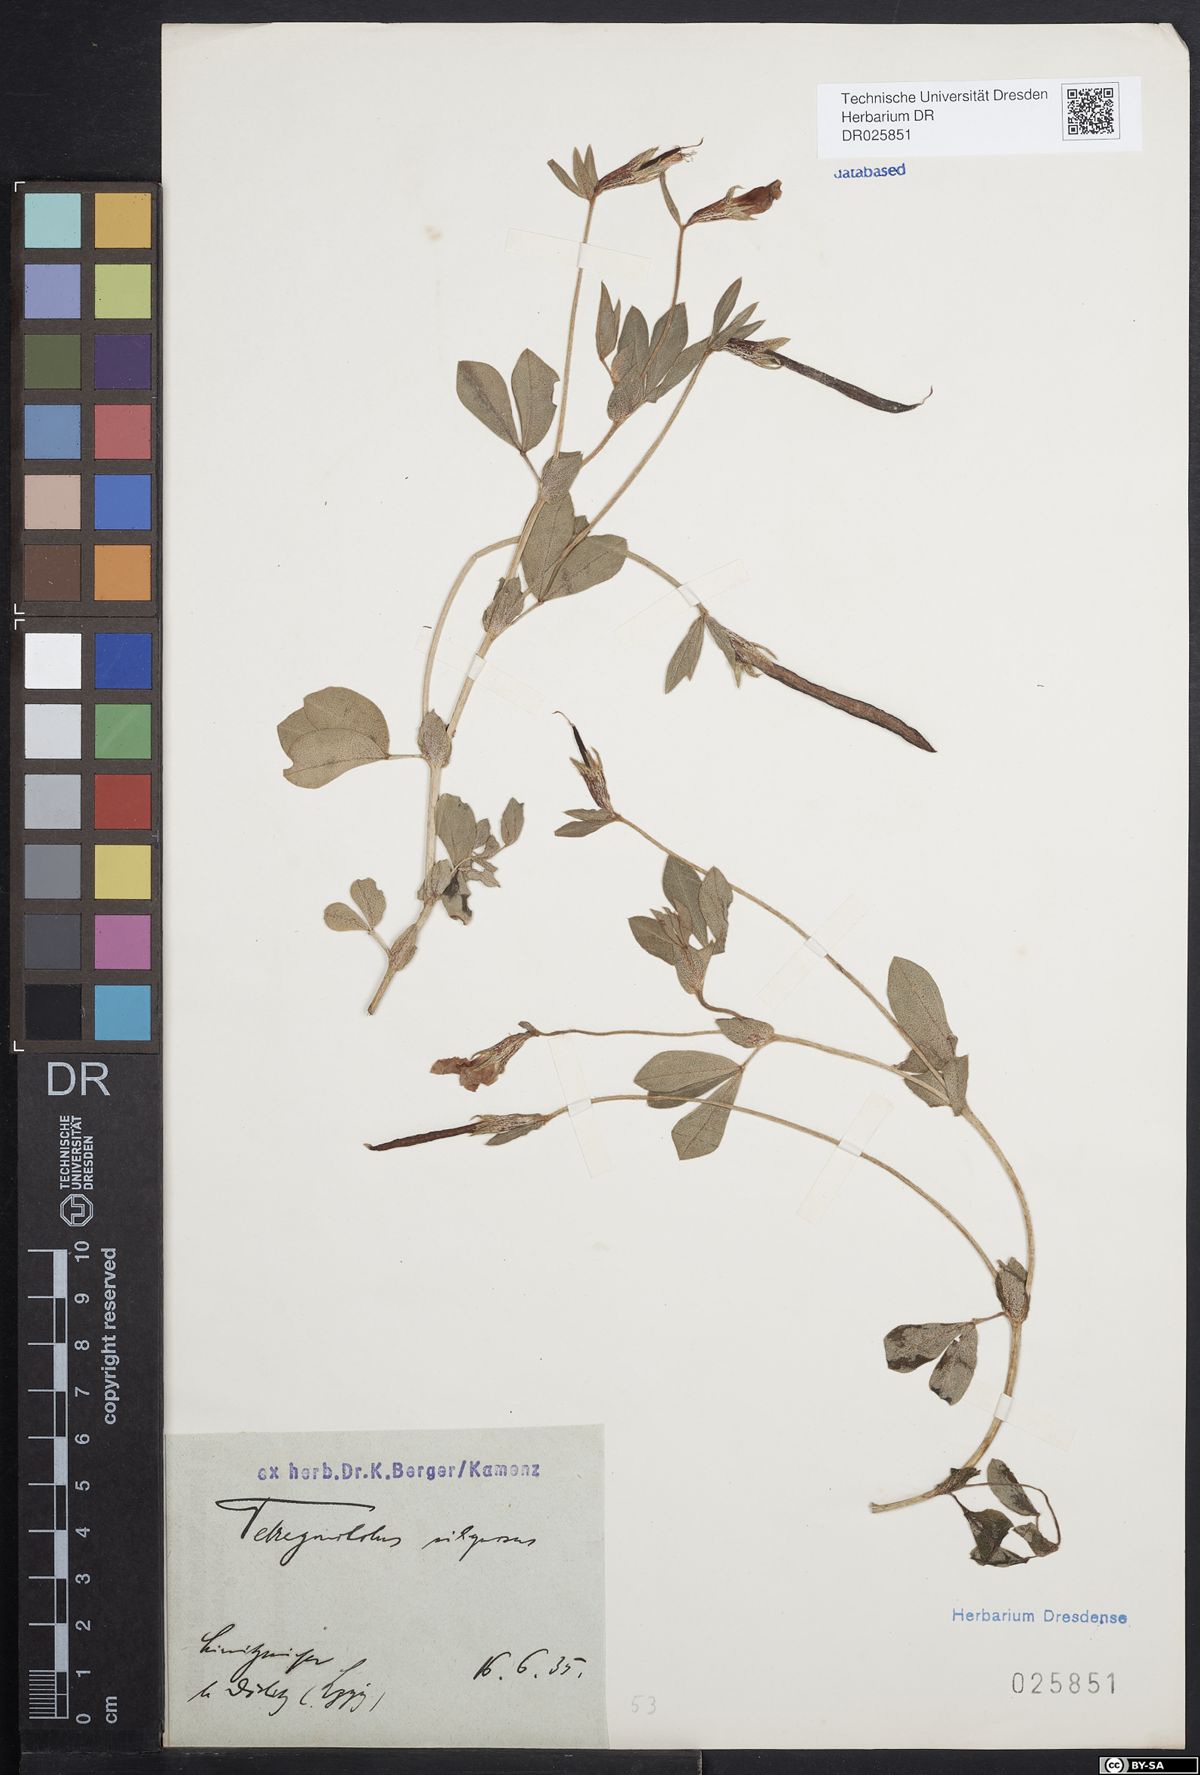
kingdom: Plantae
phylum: Tracheophyta
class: Magnoliopsida
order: Fabales
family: Fabaceae
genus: Lotus
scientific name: Lotus maritimus
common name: Dragon's-teeth
